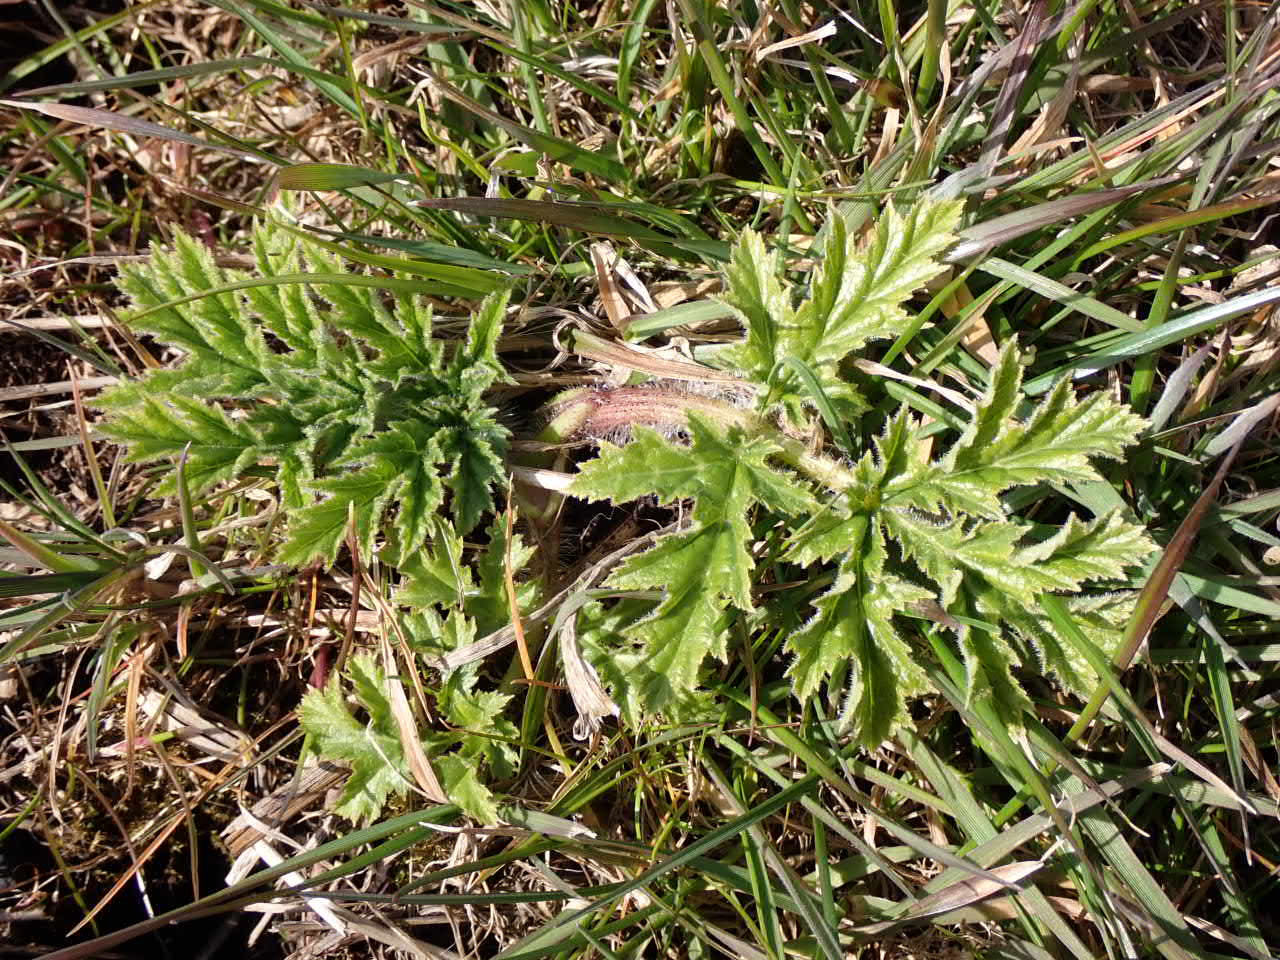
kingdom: Plantae
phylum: Tracheophyta
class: Magnoliopsida
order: Apiales
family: Apiaceae
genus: Heracleum
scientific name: Heracleum mantegazzianum
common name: Kæmpe-bjørneklo
